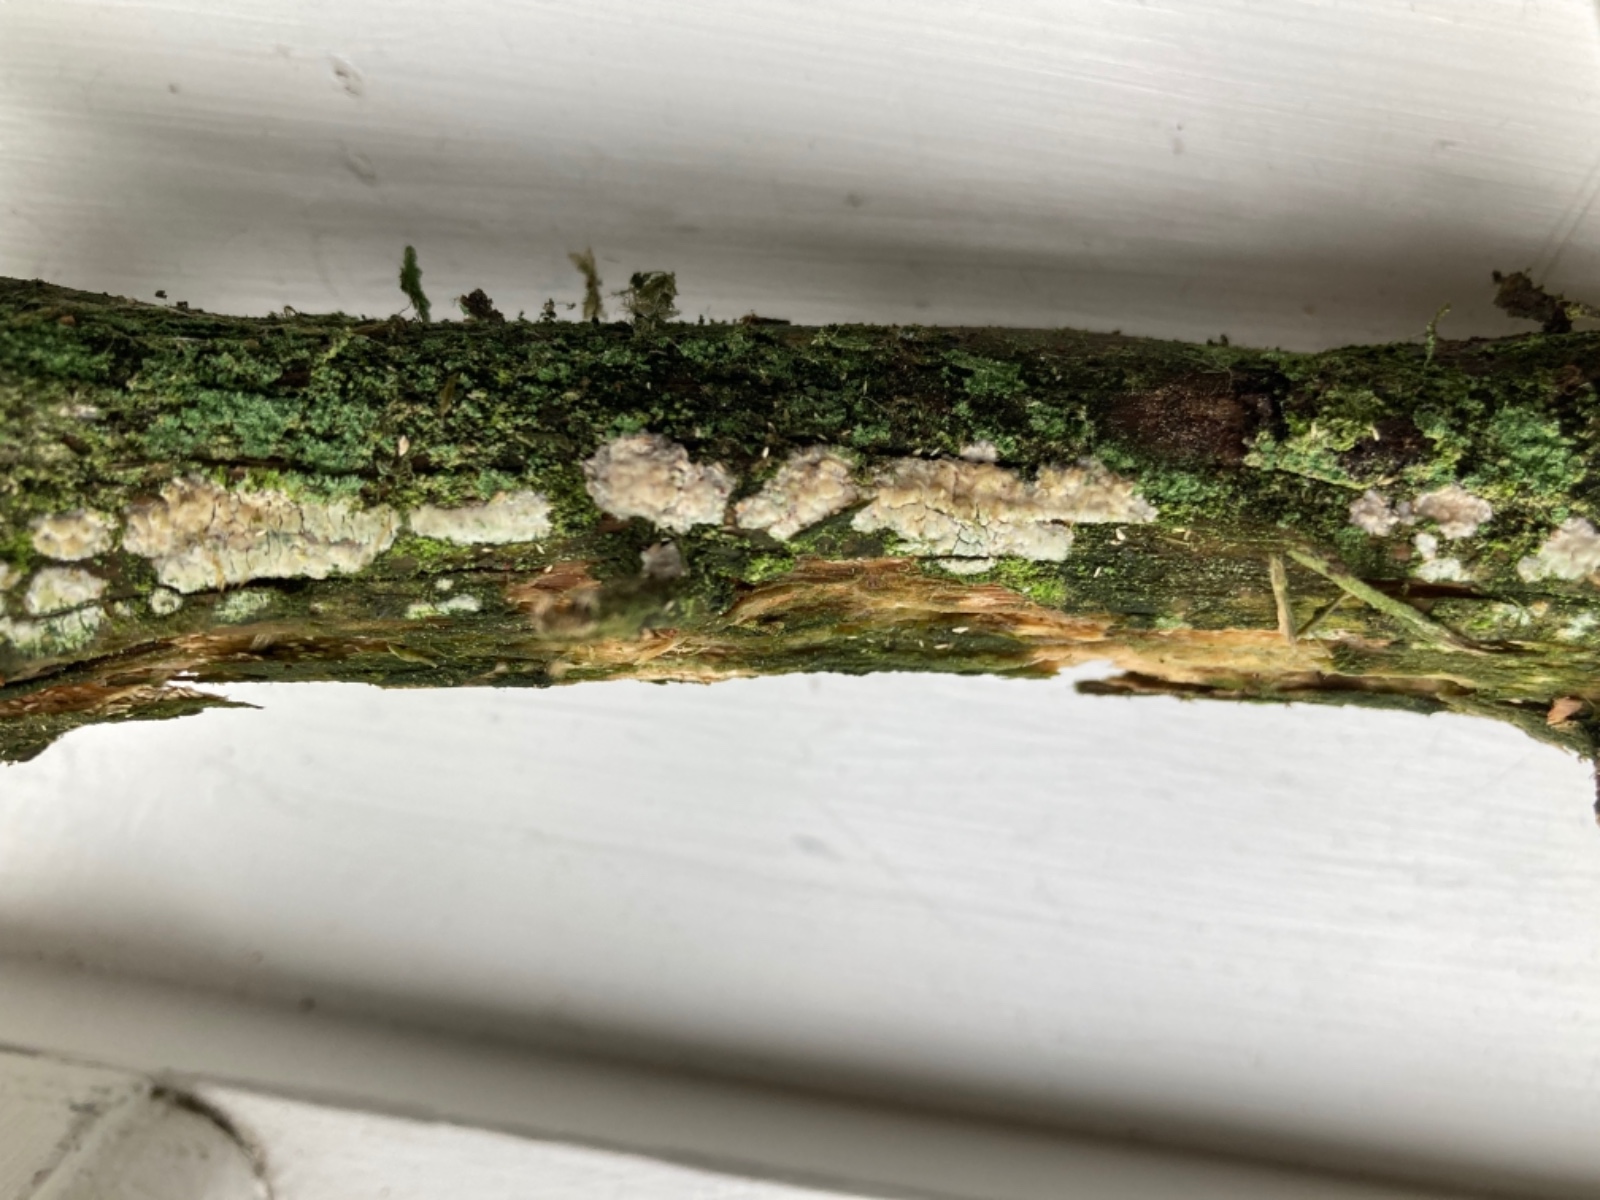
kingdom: Fungi
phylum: Basidiomycota
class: Agaricomycetes
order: Hymenochaetales
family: Rickenellaceae
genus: Globulicium
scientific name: Globulicium hiemale
